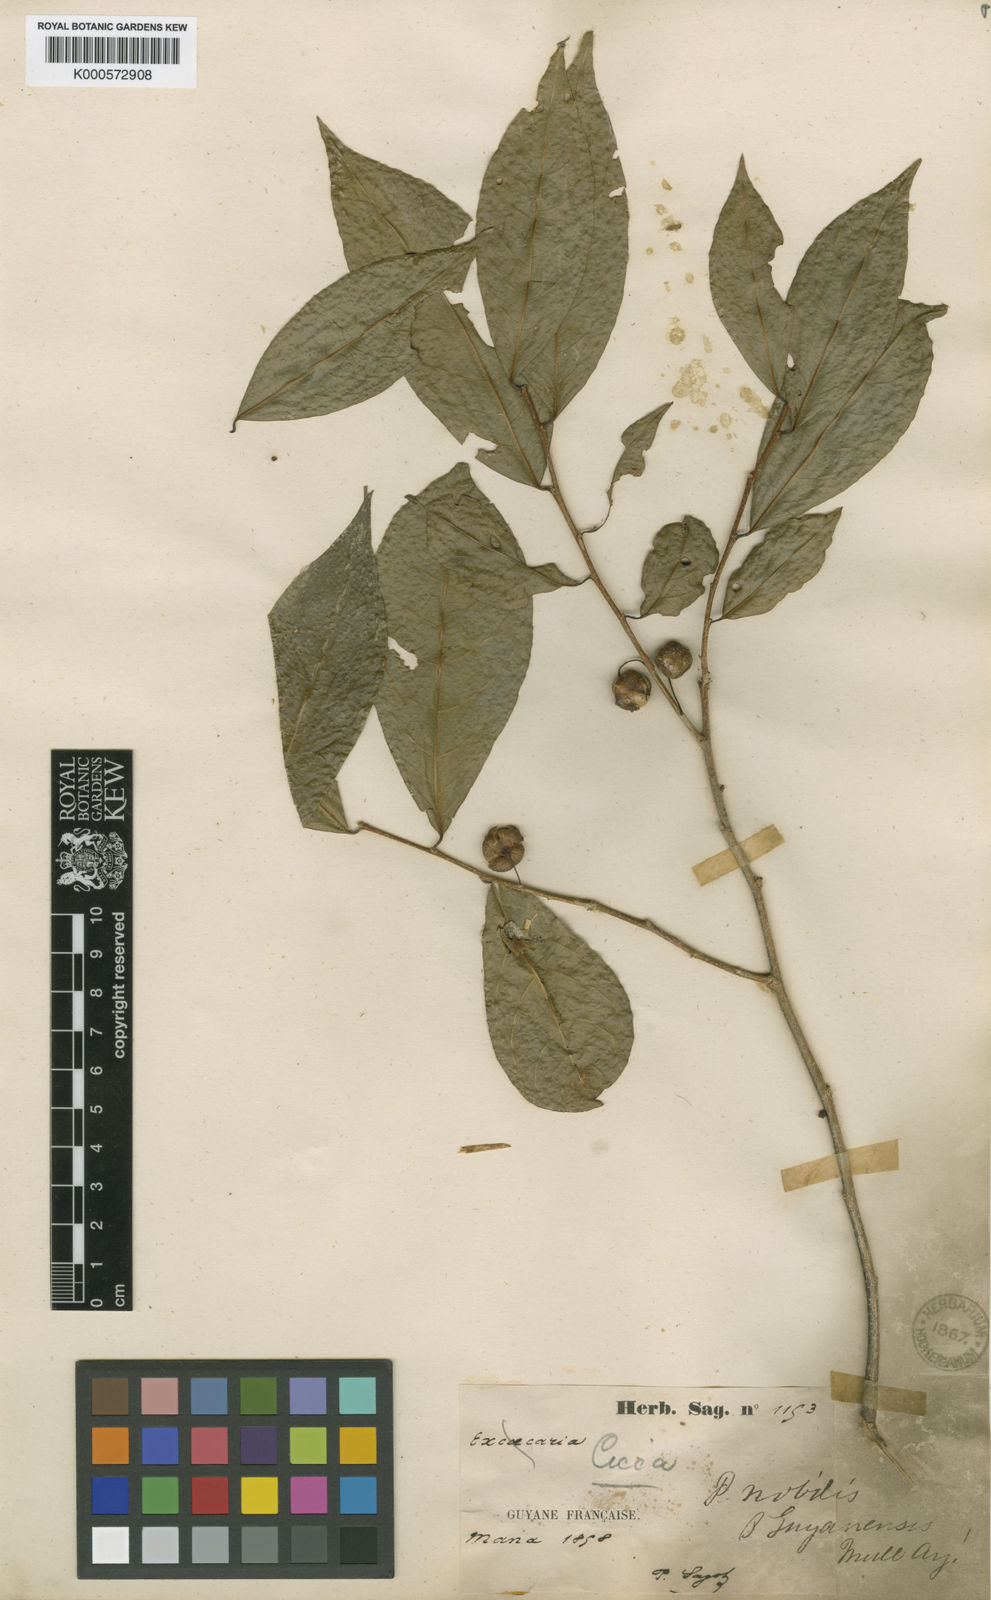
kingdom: Plantae
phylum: Tracheophyta
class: Magnoliopsida
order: Malpighiales
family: Phyllanthaceae
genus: Margaritaria
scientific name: Margaritaria nobilis
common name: Goose berry
